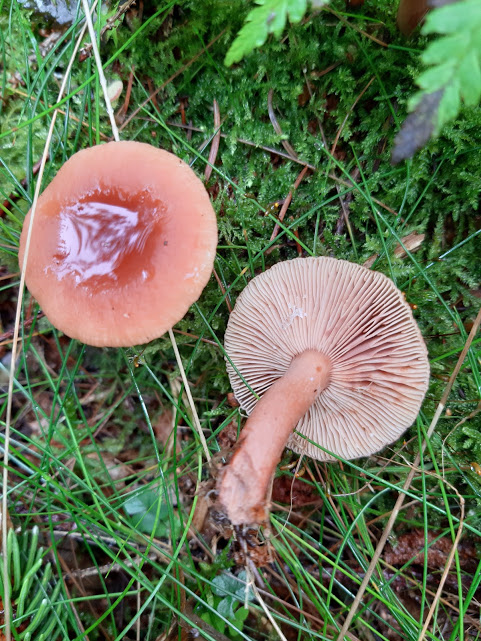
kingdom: Fungi
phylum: Basidiomycota
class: Agaricomycetes
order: Russulales
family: Russulaceae
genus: Lactarius
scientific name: Lactarius tabidus
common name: rynket mælkehat
